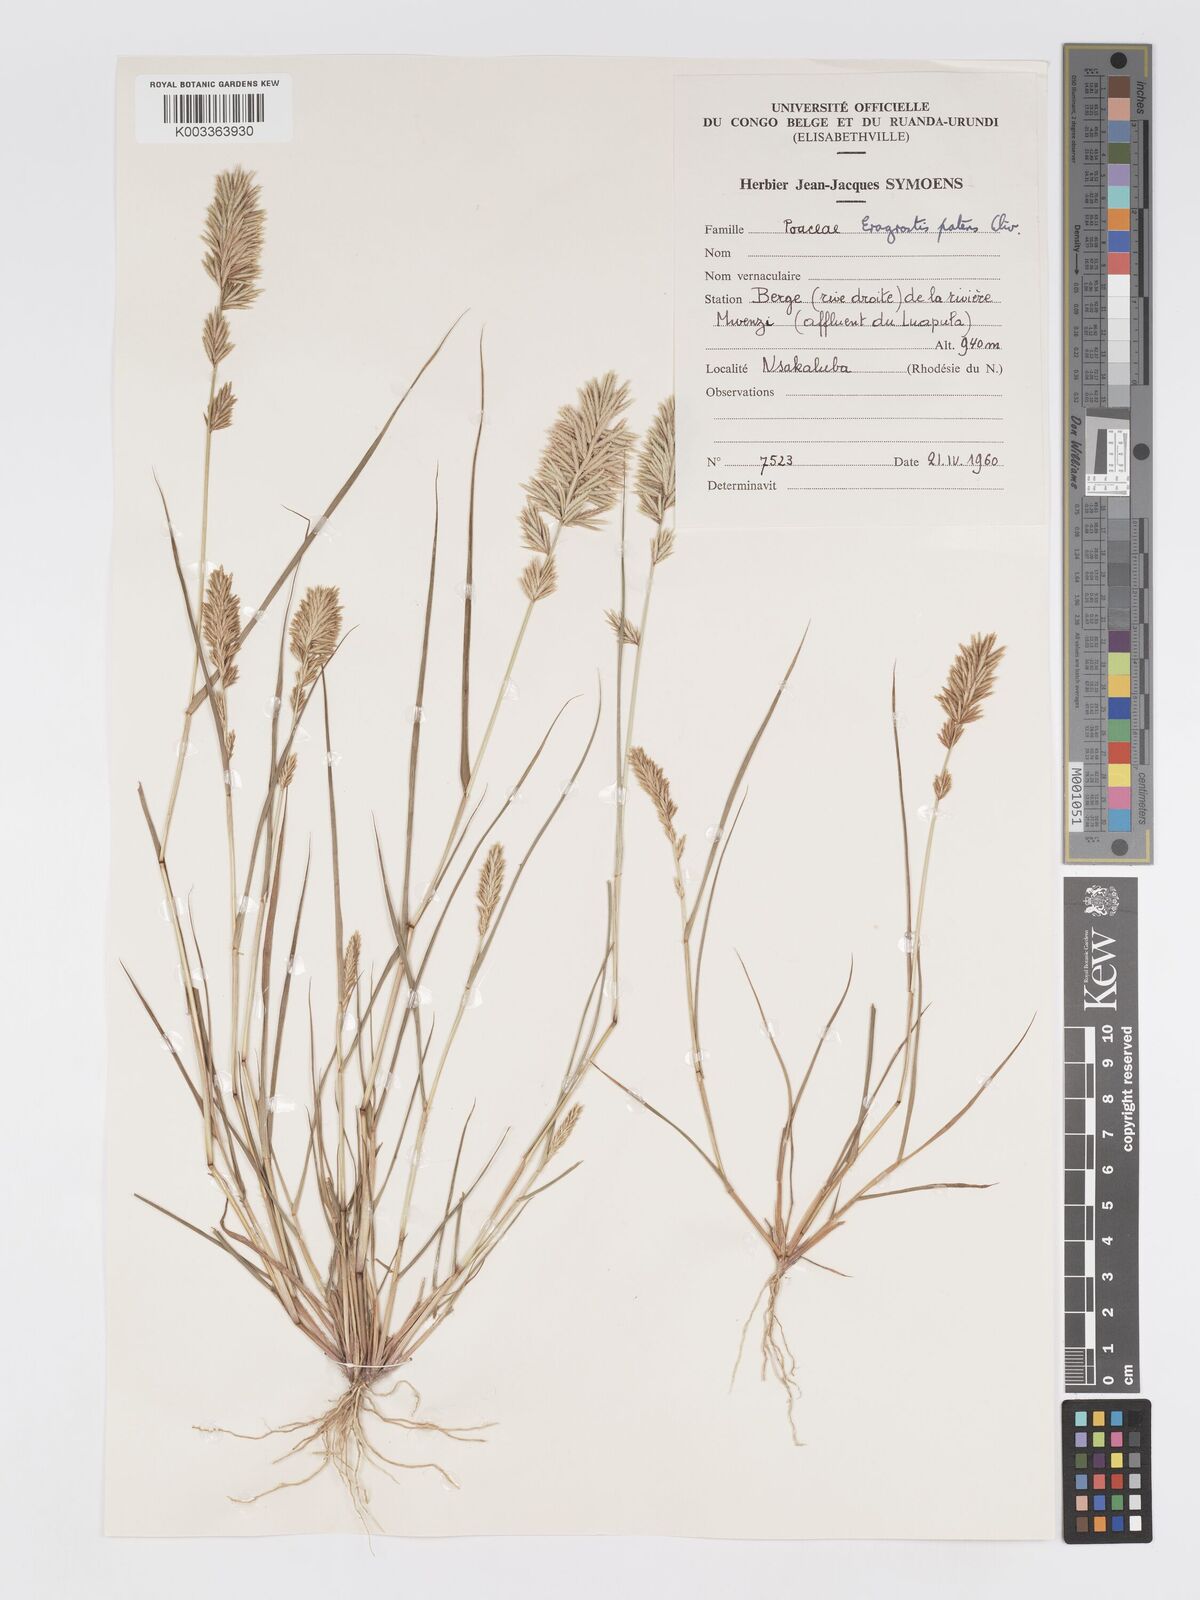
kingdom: Plantae
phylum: Tracheophyta
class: Liliopsida
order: Poales
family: Poaceae
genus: Eragrostis
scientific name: Eragrostis patens
